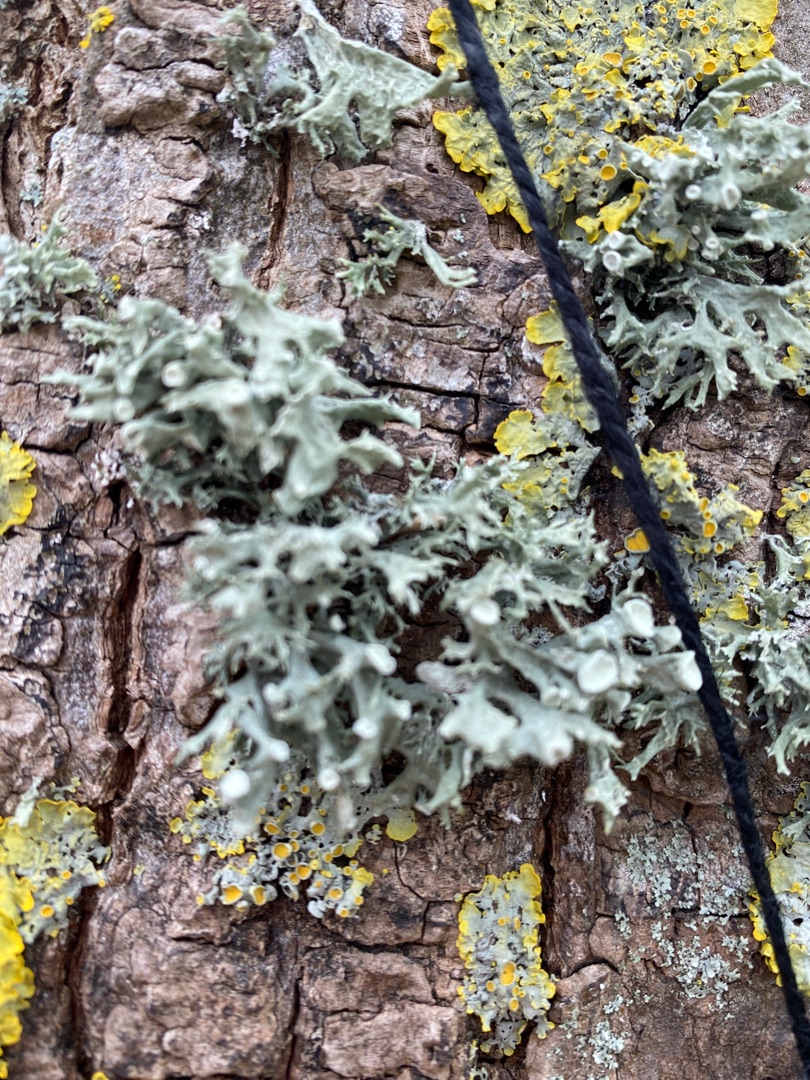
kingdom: Fungi
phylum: Ascomycota
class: Lecanoromycetes
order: Lecanorales
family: Ramalinaceae
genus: Ramalina
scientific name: Ramalina fastigiata
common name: Tue-grenlav
